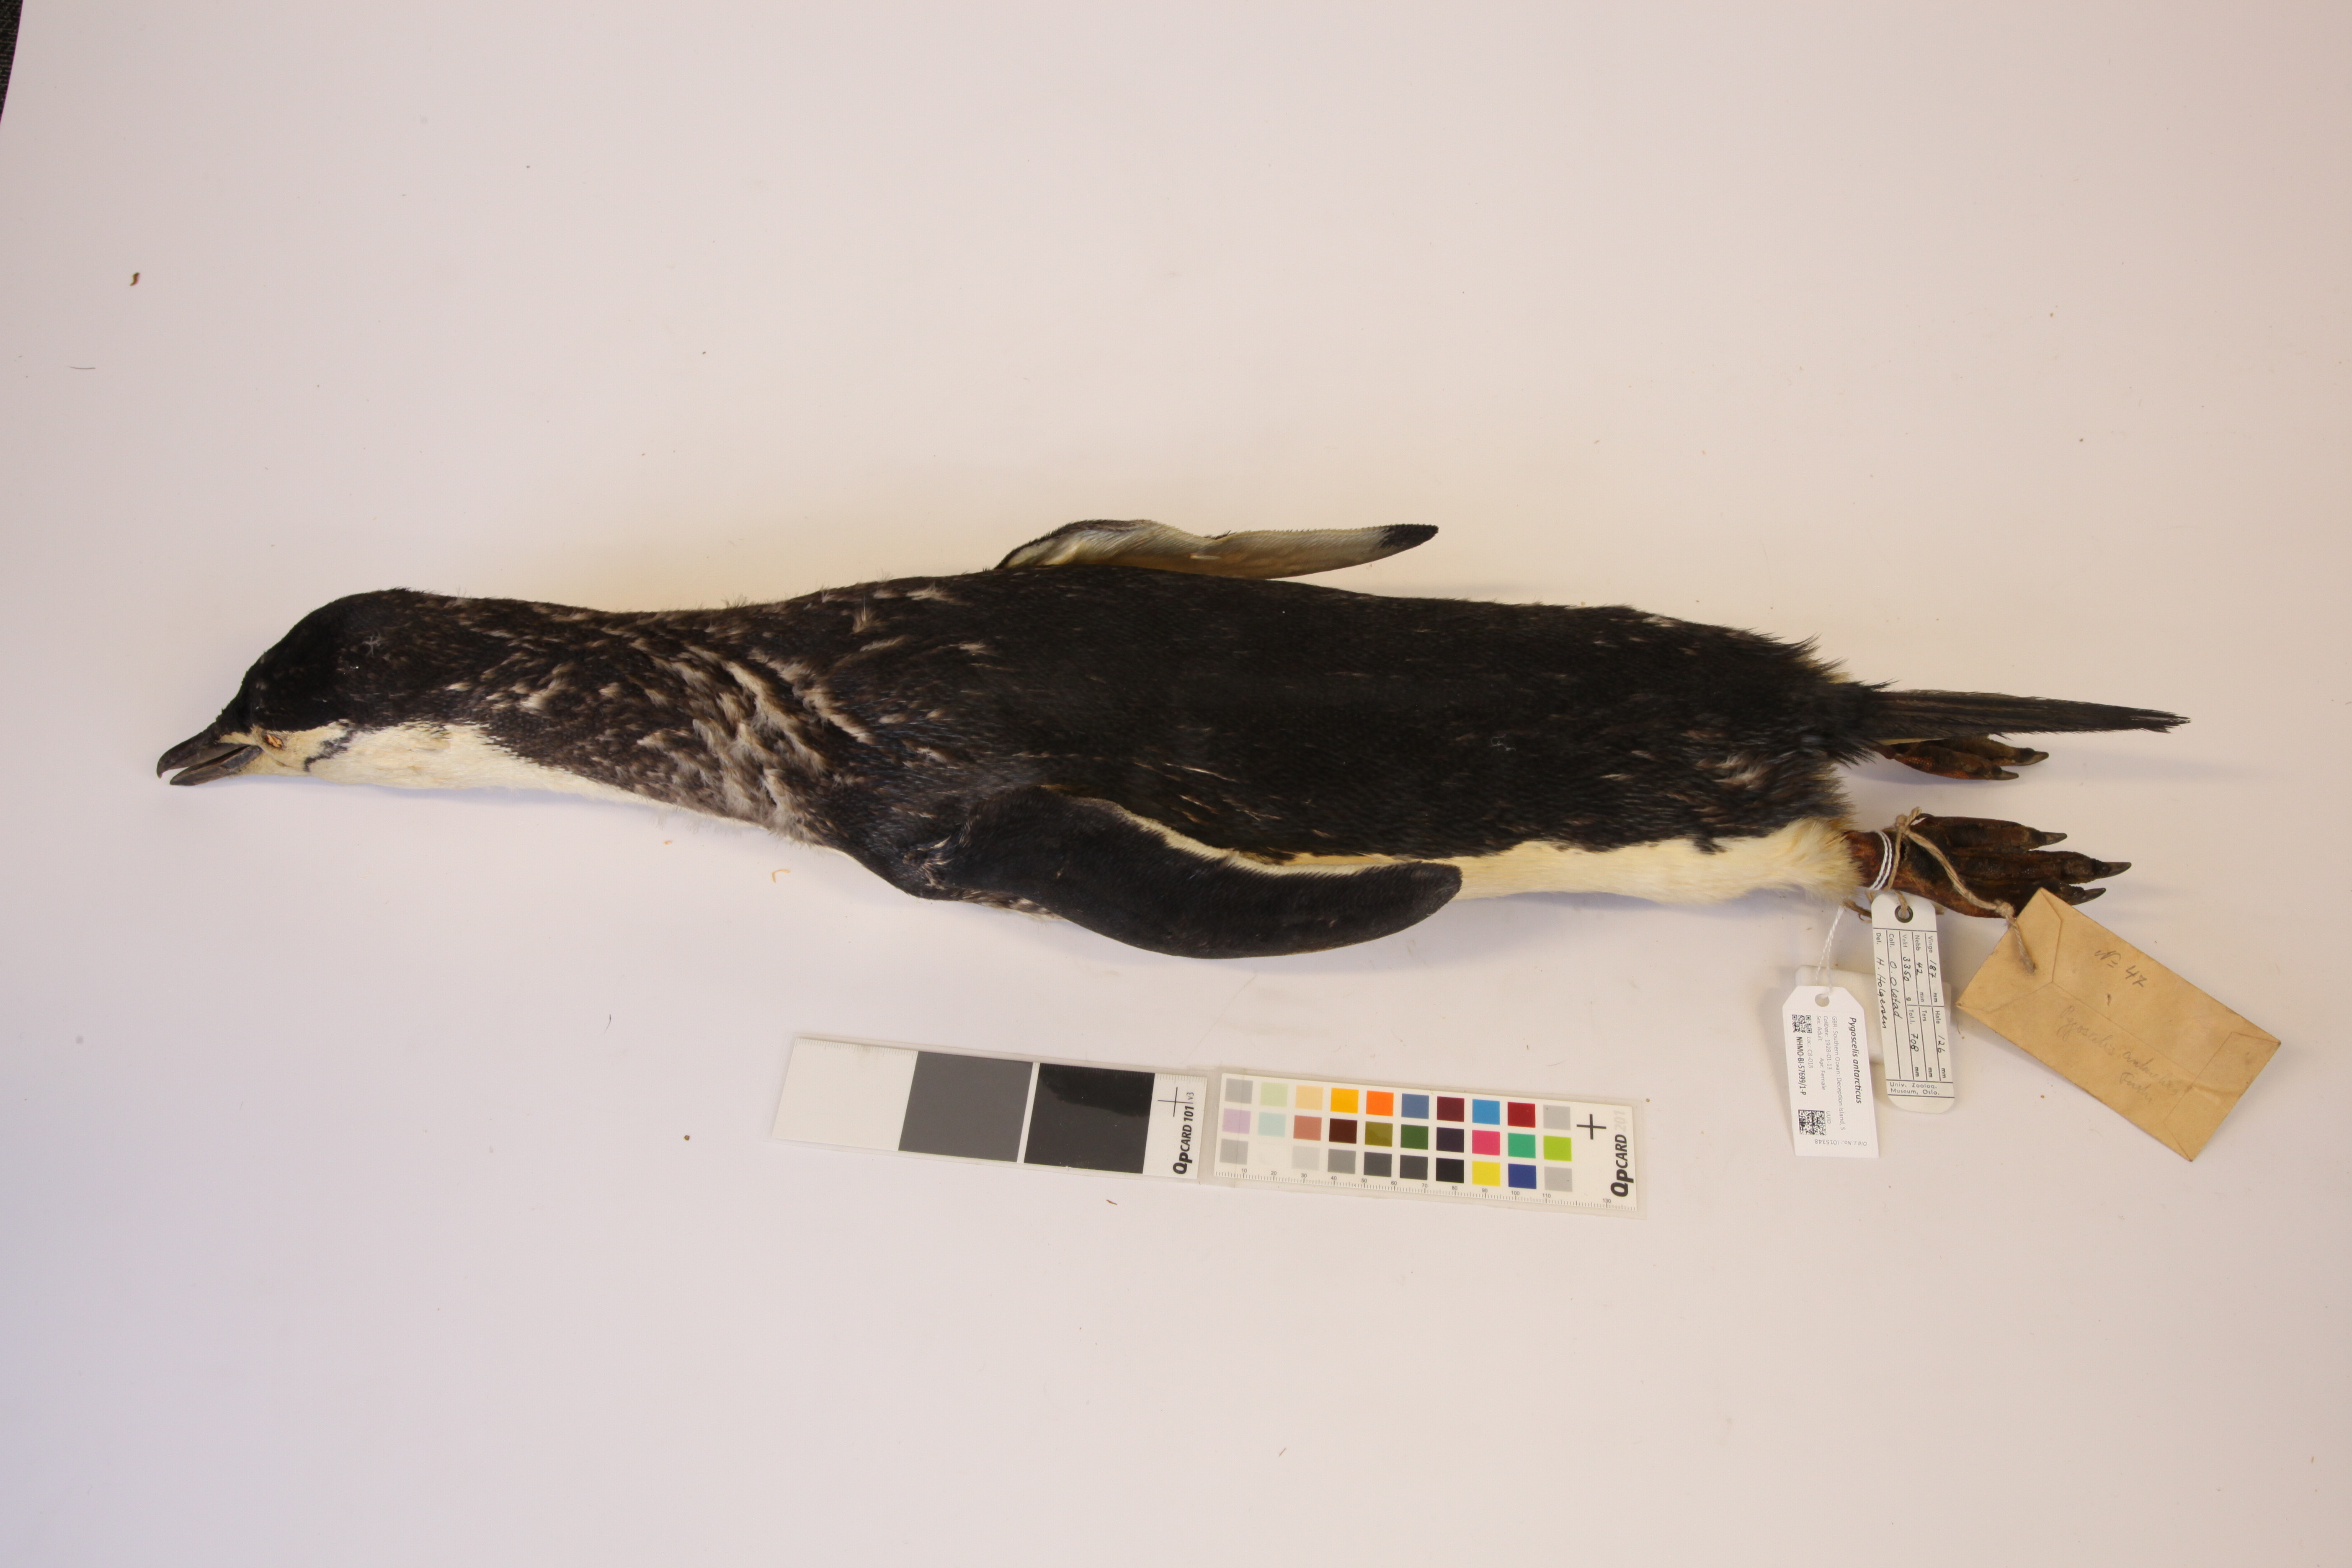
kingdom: Animalia
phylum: Chordata
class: Aves
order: Sphenisciformes
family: Spheniscidae
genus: Pygoscelis
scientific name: Pygoscelis antarcticus
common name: Chinstrap penguin
